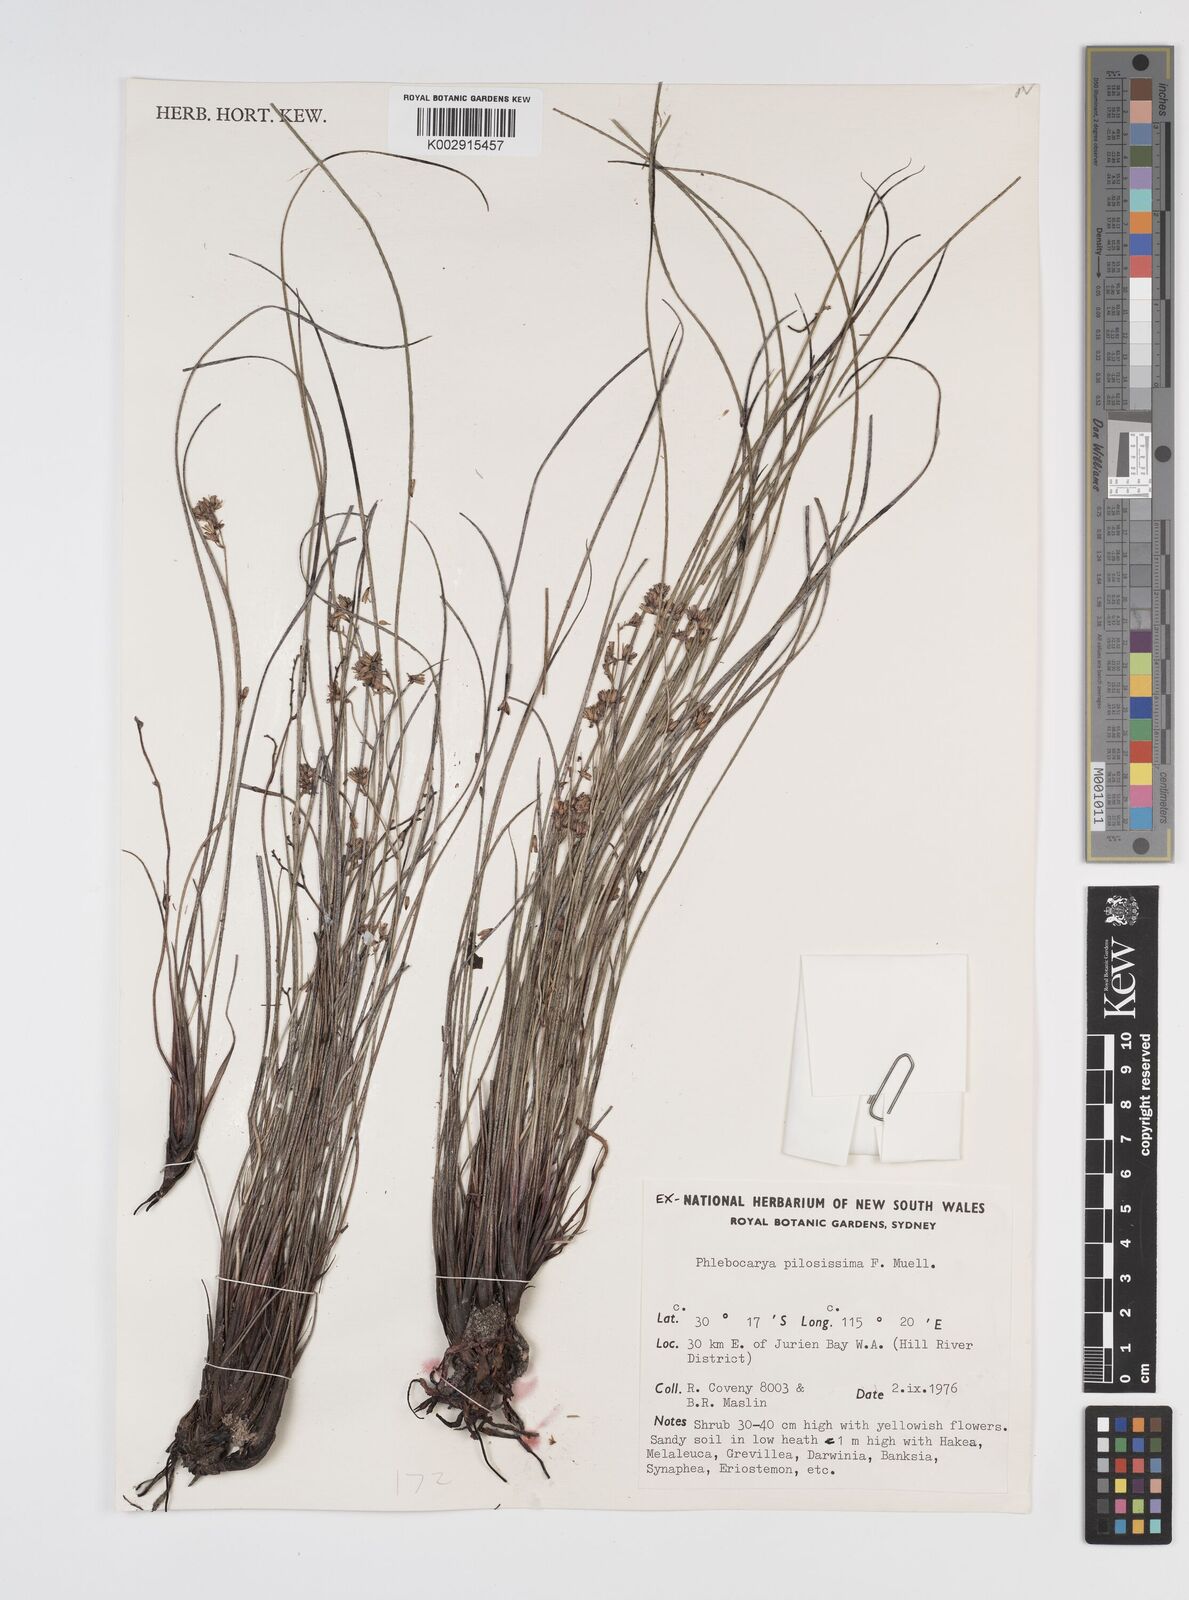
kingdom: Plantae
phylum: Tracheophyta
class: Liliopsida
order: Commelinales
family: Haemodoraceae
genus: Phlebocarya
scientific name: Phlebocarya pilosissima
